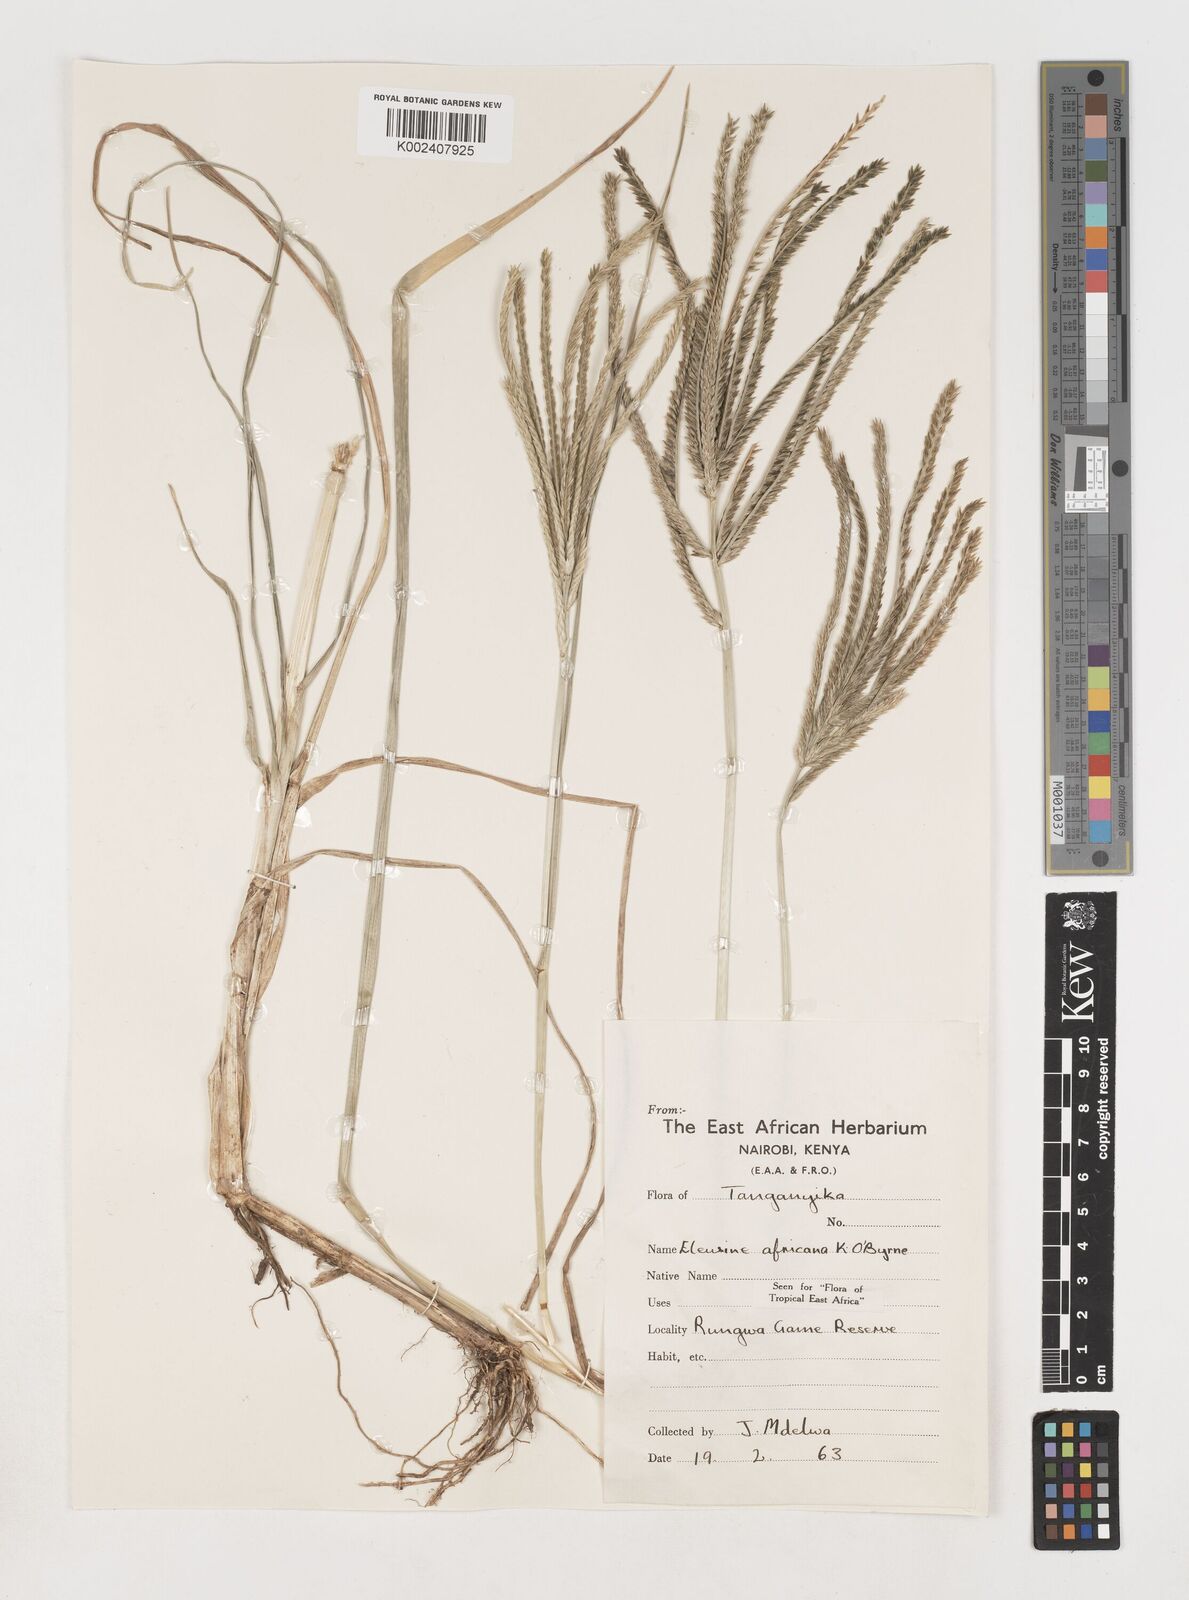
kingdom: Plantae
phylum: Tracheophyta
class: Liliopsida
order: Poales
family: Poaceae
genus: Eleusine
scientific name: Eleusine africana
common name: Wild african finger millet
